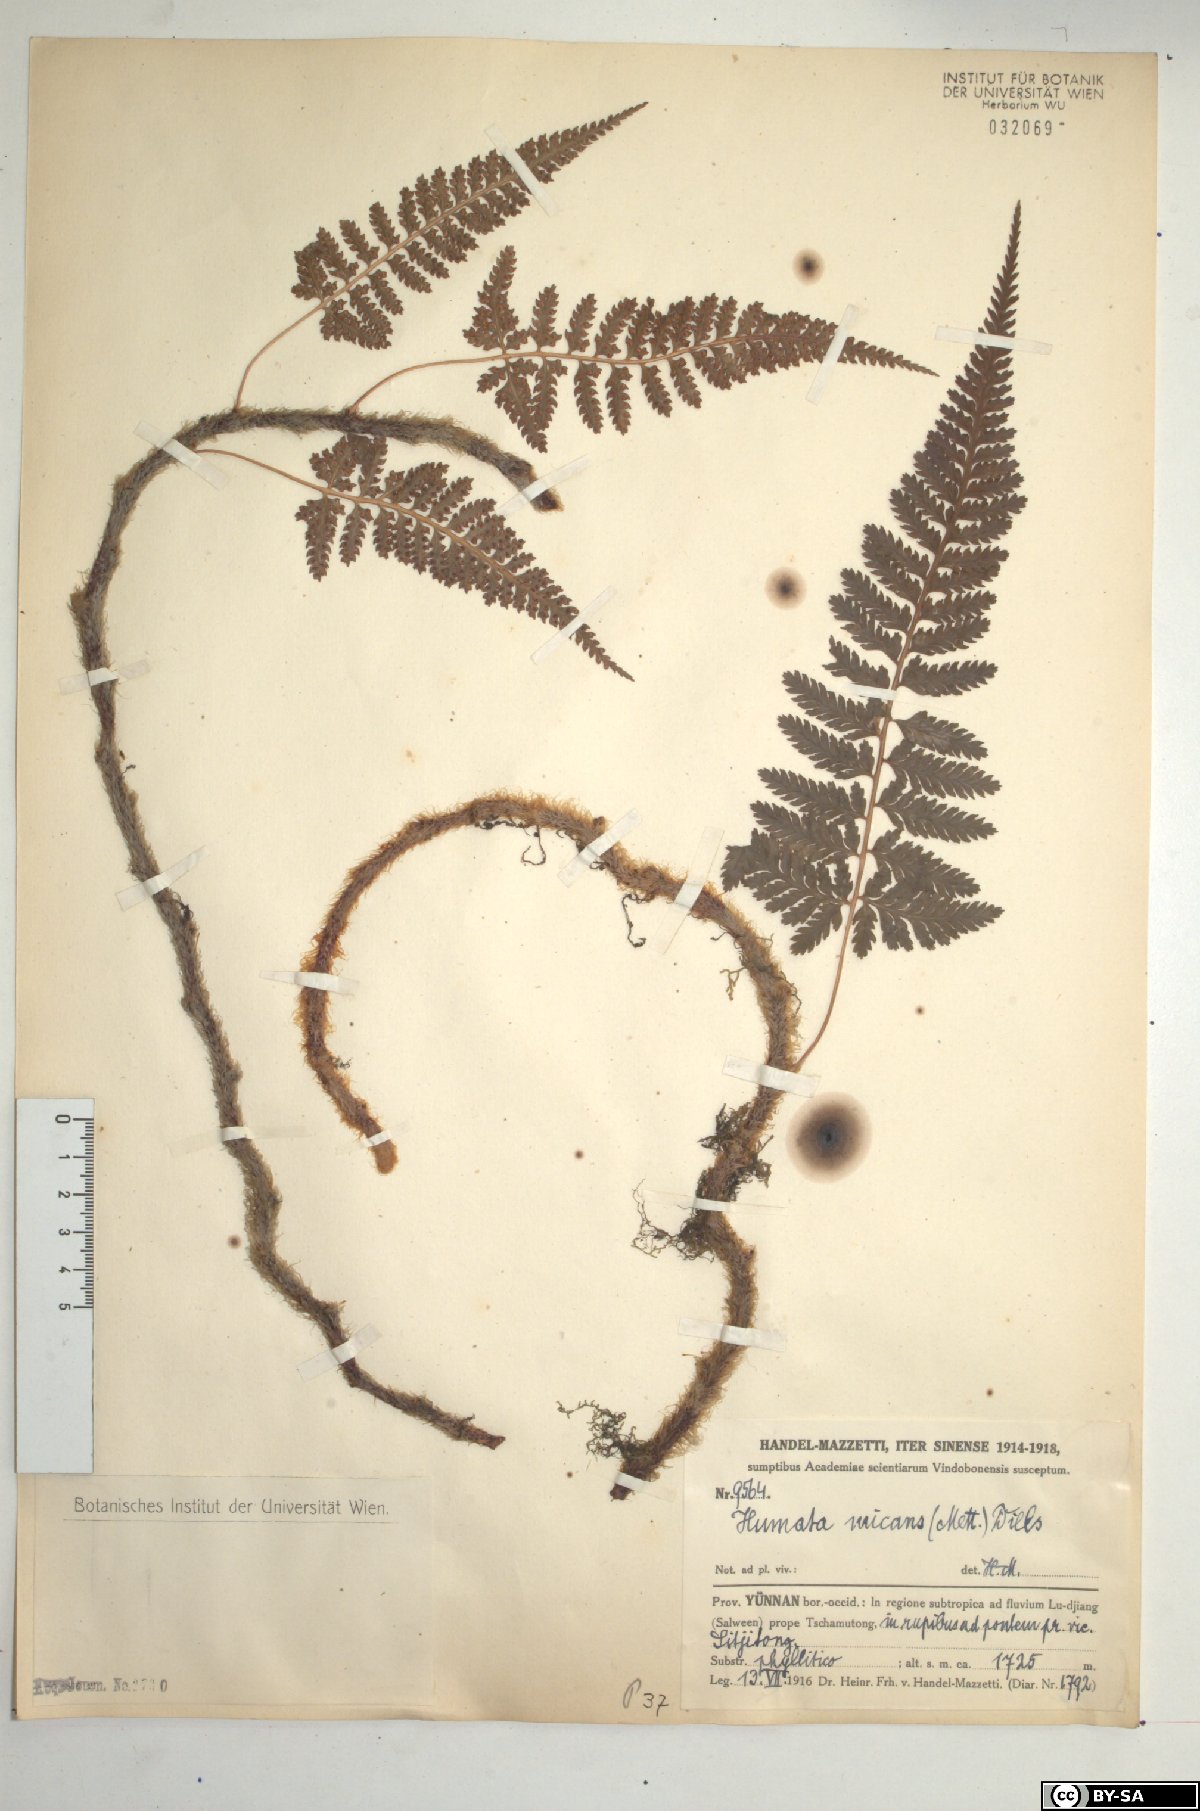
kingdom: Plantae
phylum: Tracheophyta
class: Polypodiopsida
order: Polypodiales
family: Davalliaceae
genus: Davallia
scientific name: Davallia assamica
